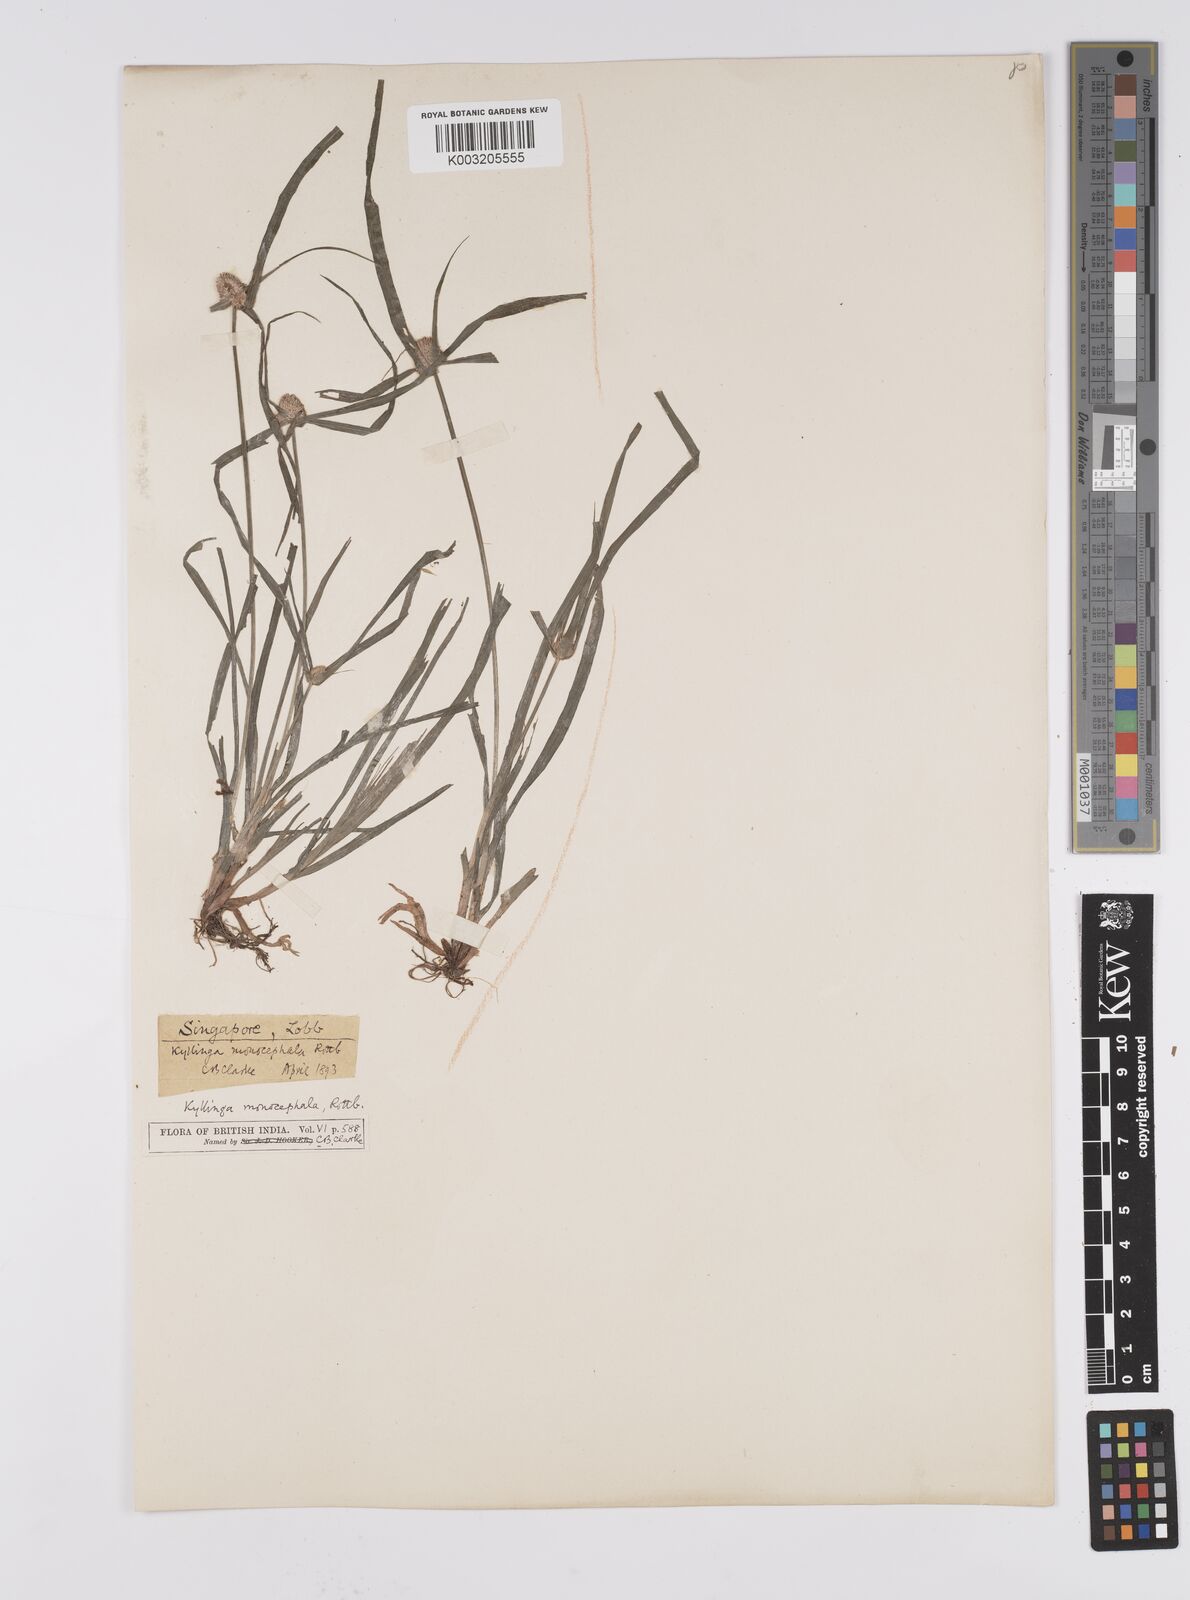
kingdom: Plantae
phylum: Tracheophyta
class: Liliopsida
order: Poales
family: Cyperaceae
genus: Cyperus
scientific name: Cyperus nemoralis
